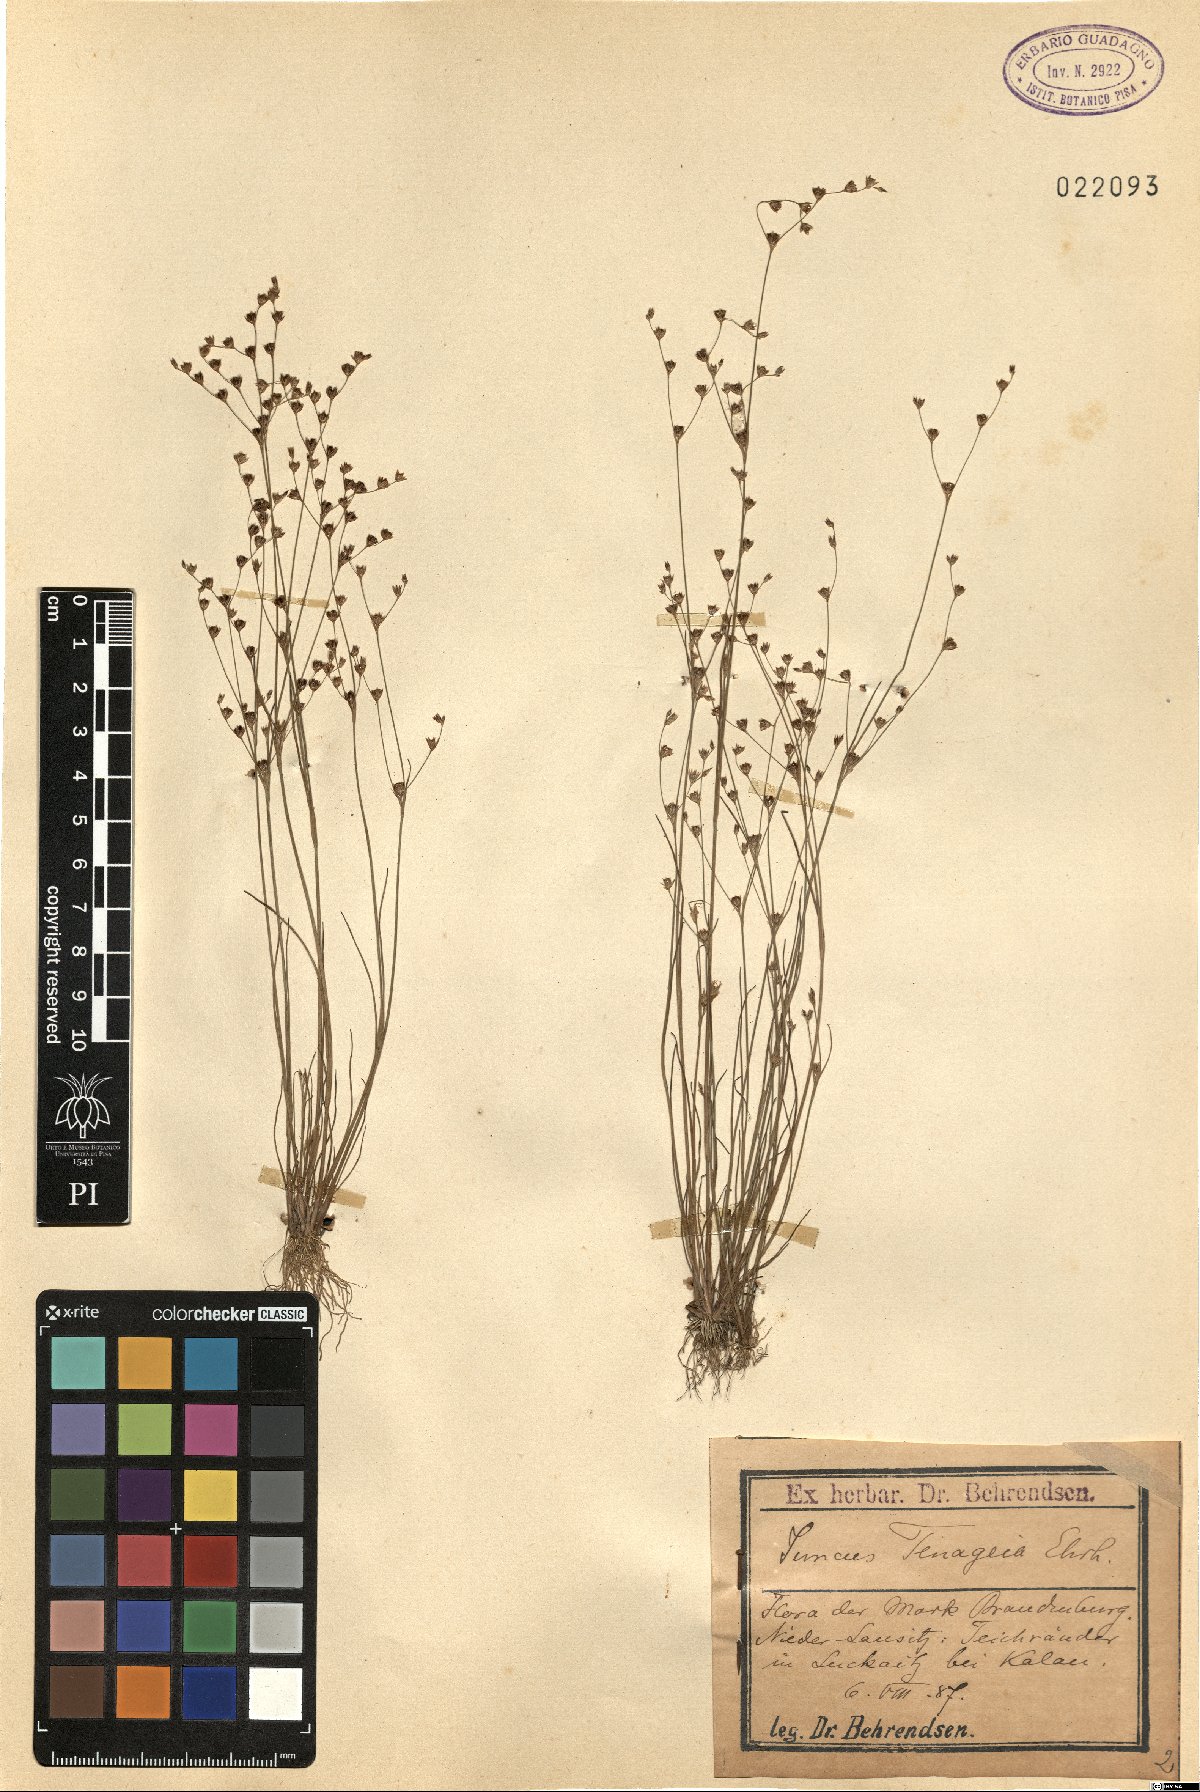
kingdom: Plantae
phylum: Tracheophyta
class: Liliopsida
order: Poales
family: Juncaceae
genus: Juncus
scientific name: Juncus tenageia
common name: Sand rush
